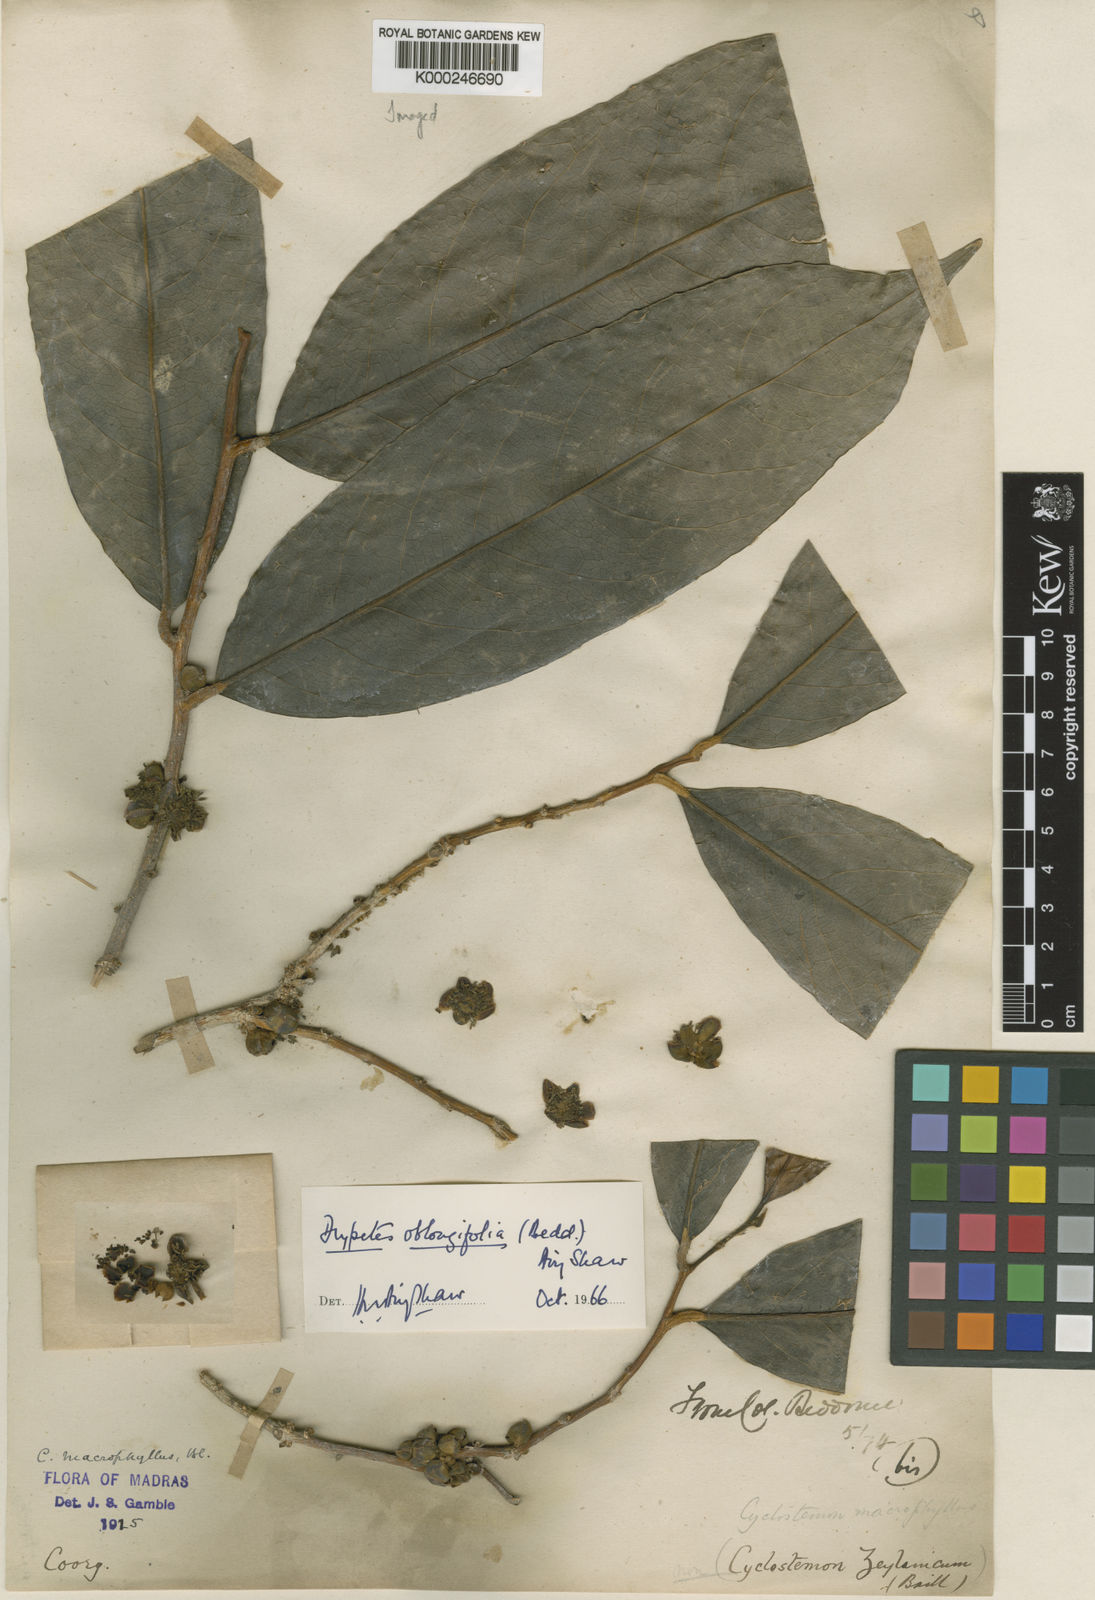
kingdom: Plantae
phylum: Tracheophyta
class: Magnoliopsida
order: Malpighiales
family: Putranjivaceae
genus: Drypetes
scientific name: Drypetes oblongifolia
